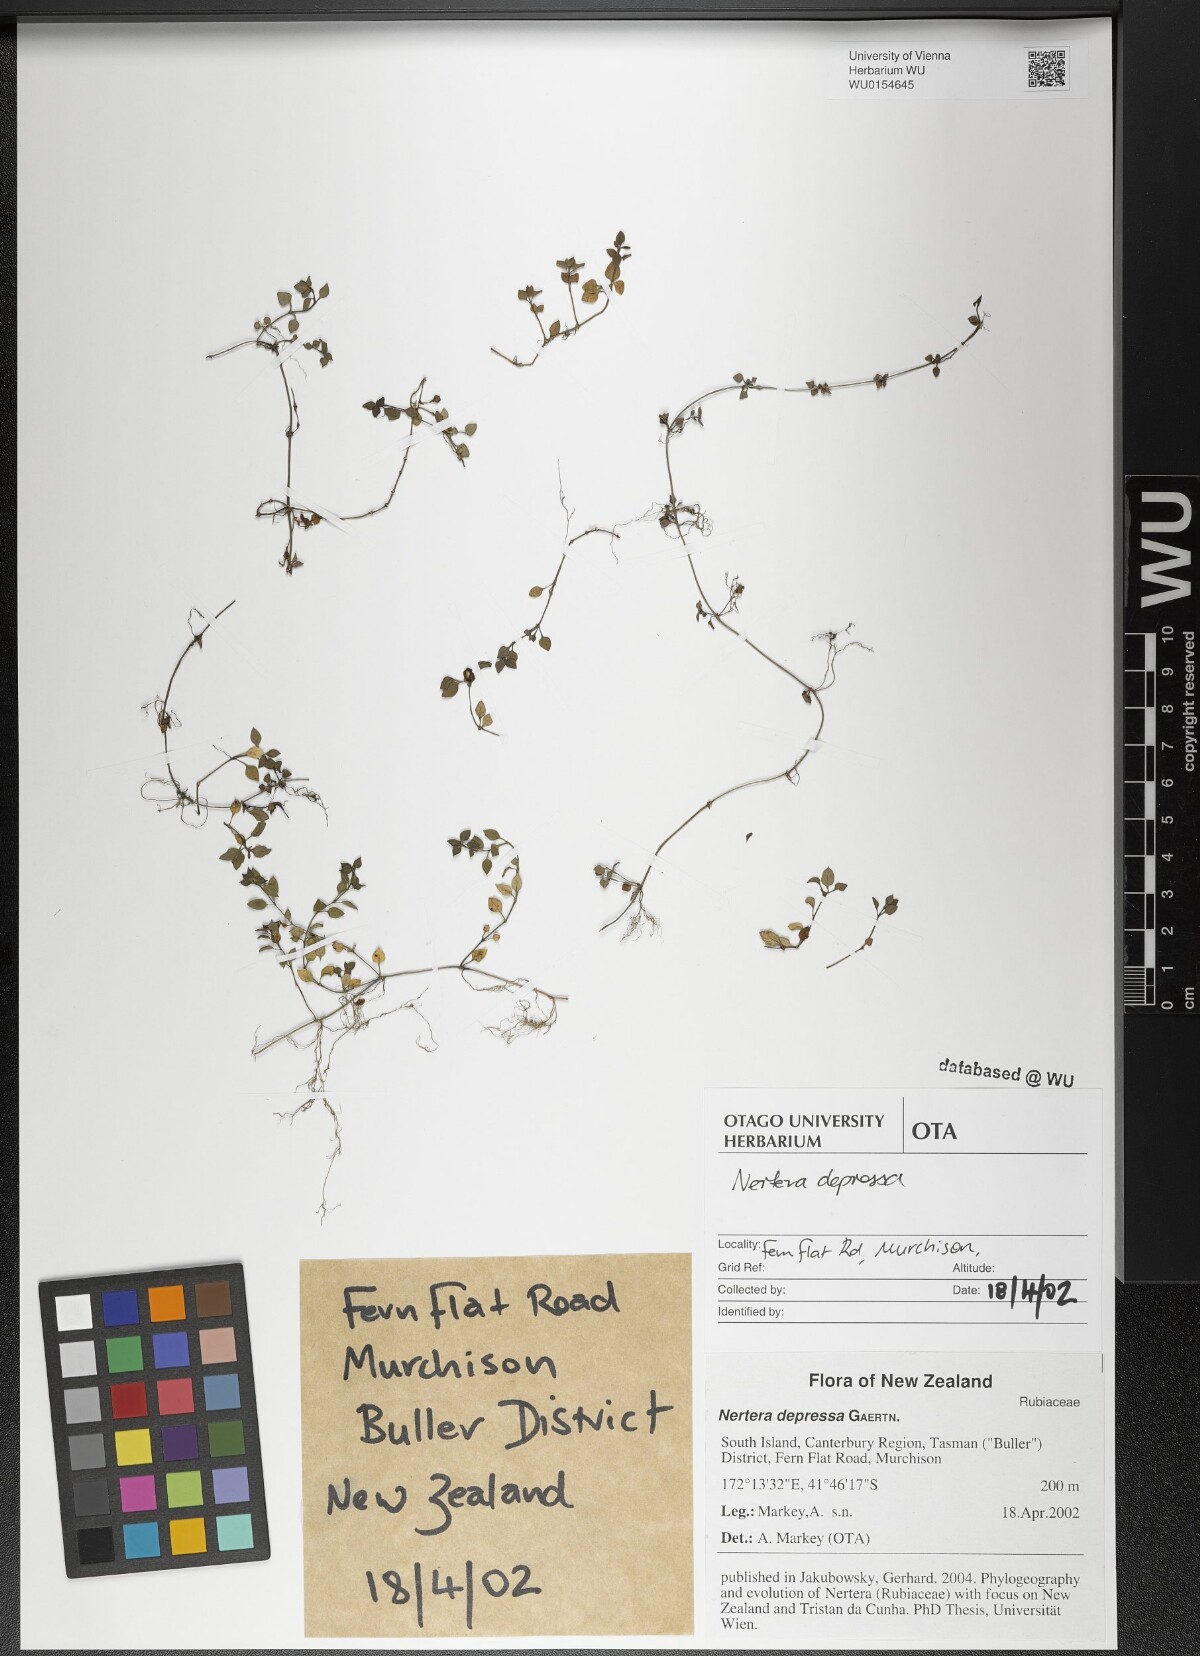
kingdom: Plantae
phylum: Tracheophyta
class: Magnoliopsida
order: Gentianales
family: Rubiaceae
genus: Nertera
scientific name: Nertera granadensis
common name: Beadplant
